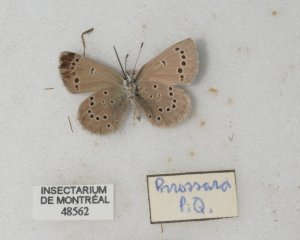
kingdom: Animalia
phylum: Arthropoda
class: Insecta
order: Lepidoptera
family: Lycaenidae
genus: Glaucopsyche
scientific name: Glaucopsyche lygdamus
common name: Silvery Blue
